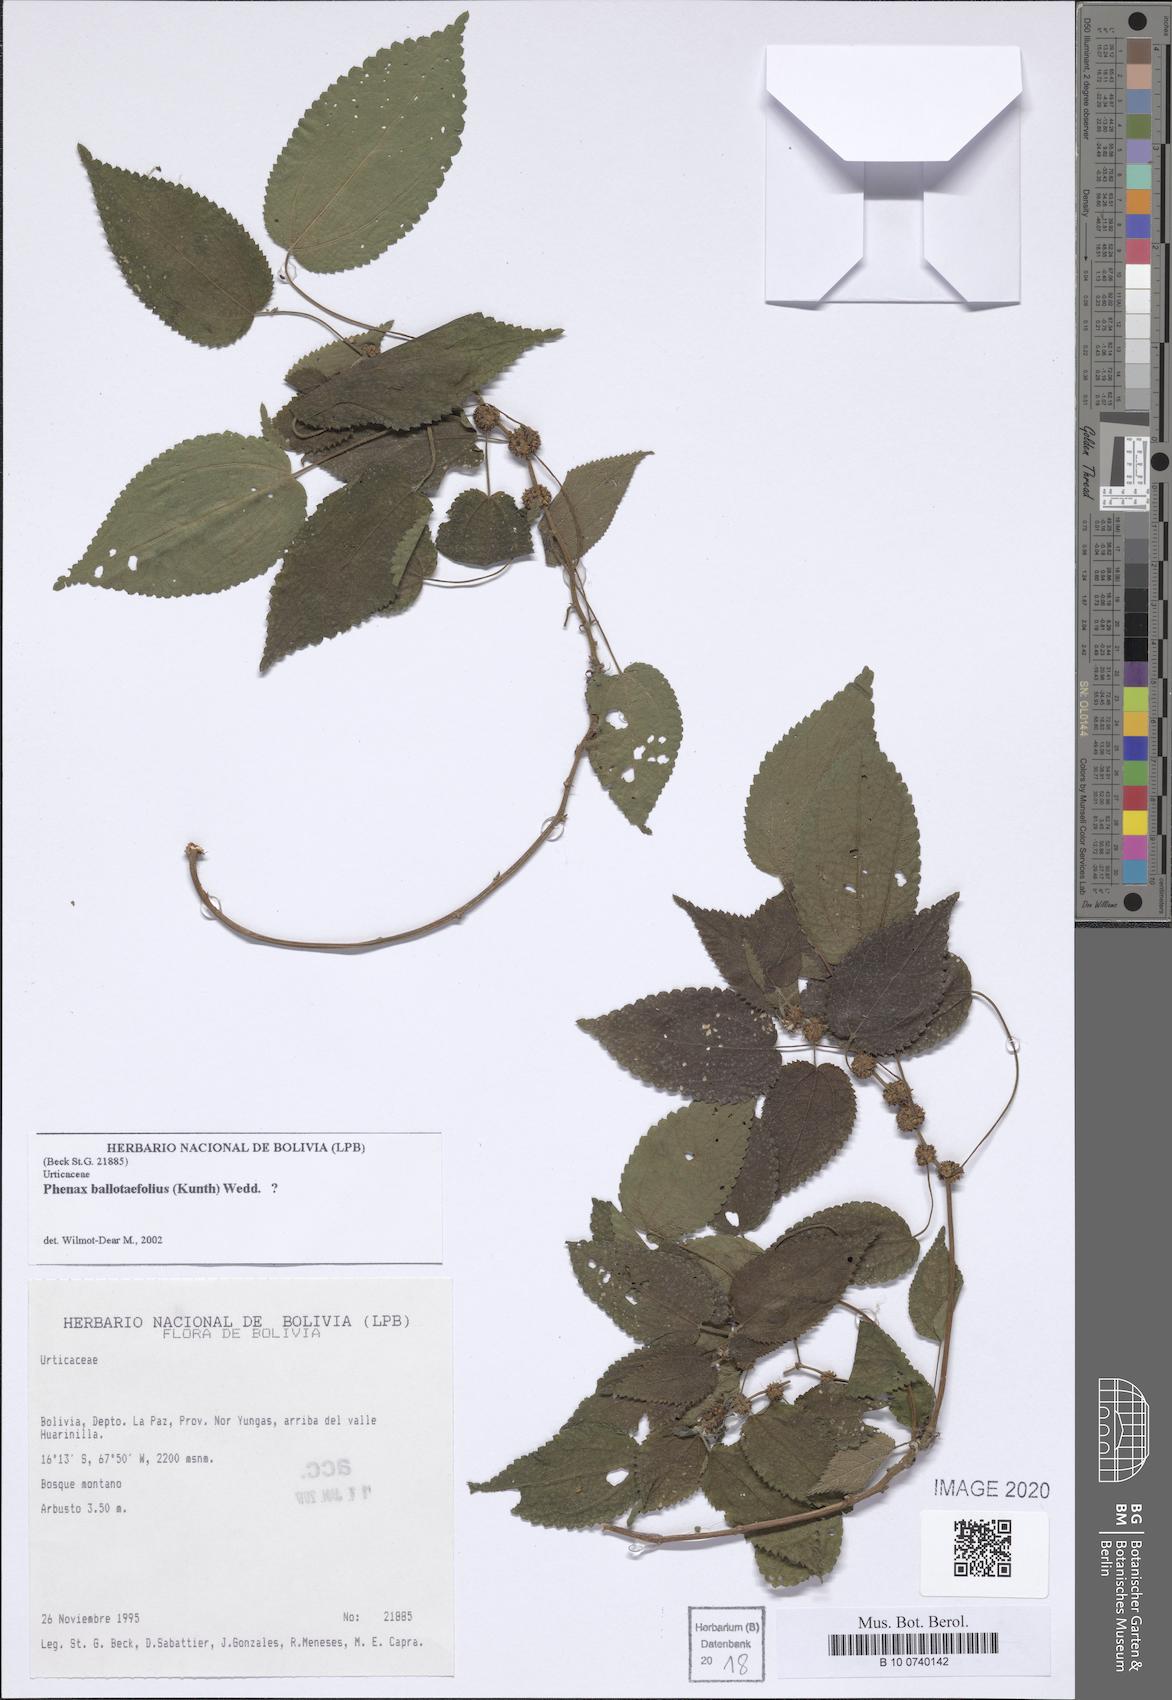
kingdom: Plantae
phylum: Tracheophyta
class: Magnoliopsida
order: Rosales
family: Urticaceae
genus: Phenax
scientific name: Phenax hirtus
